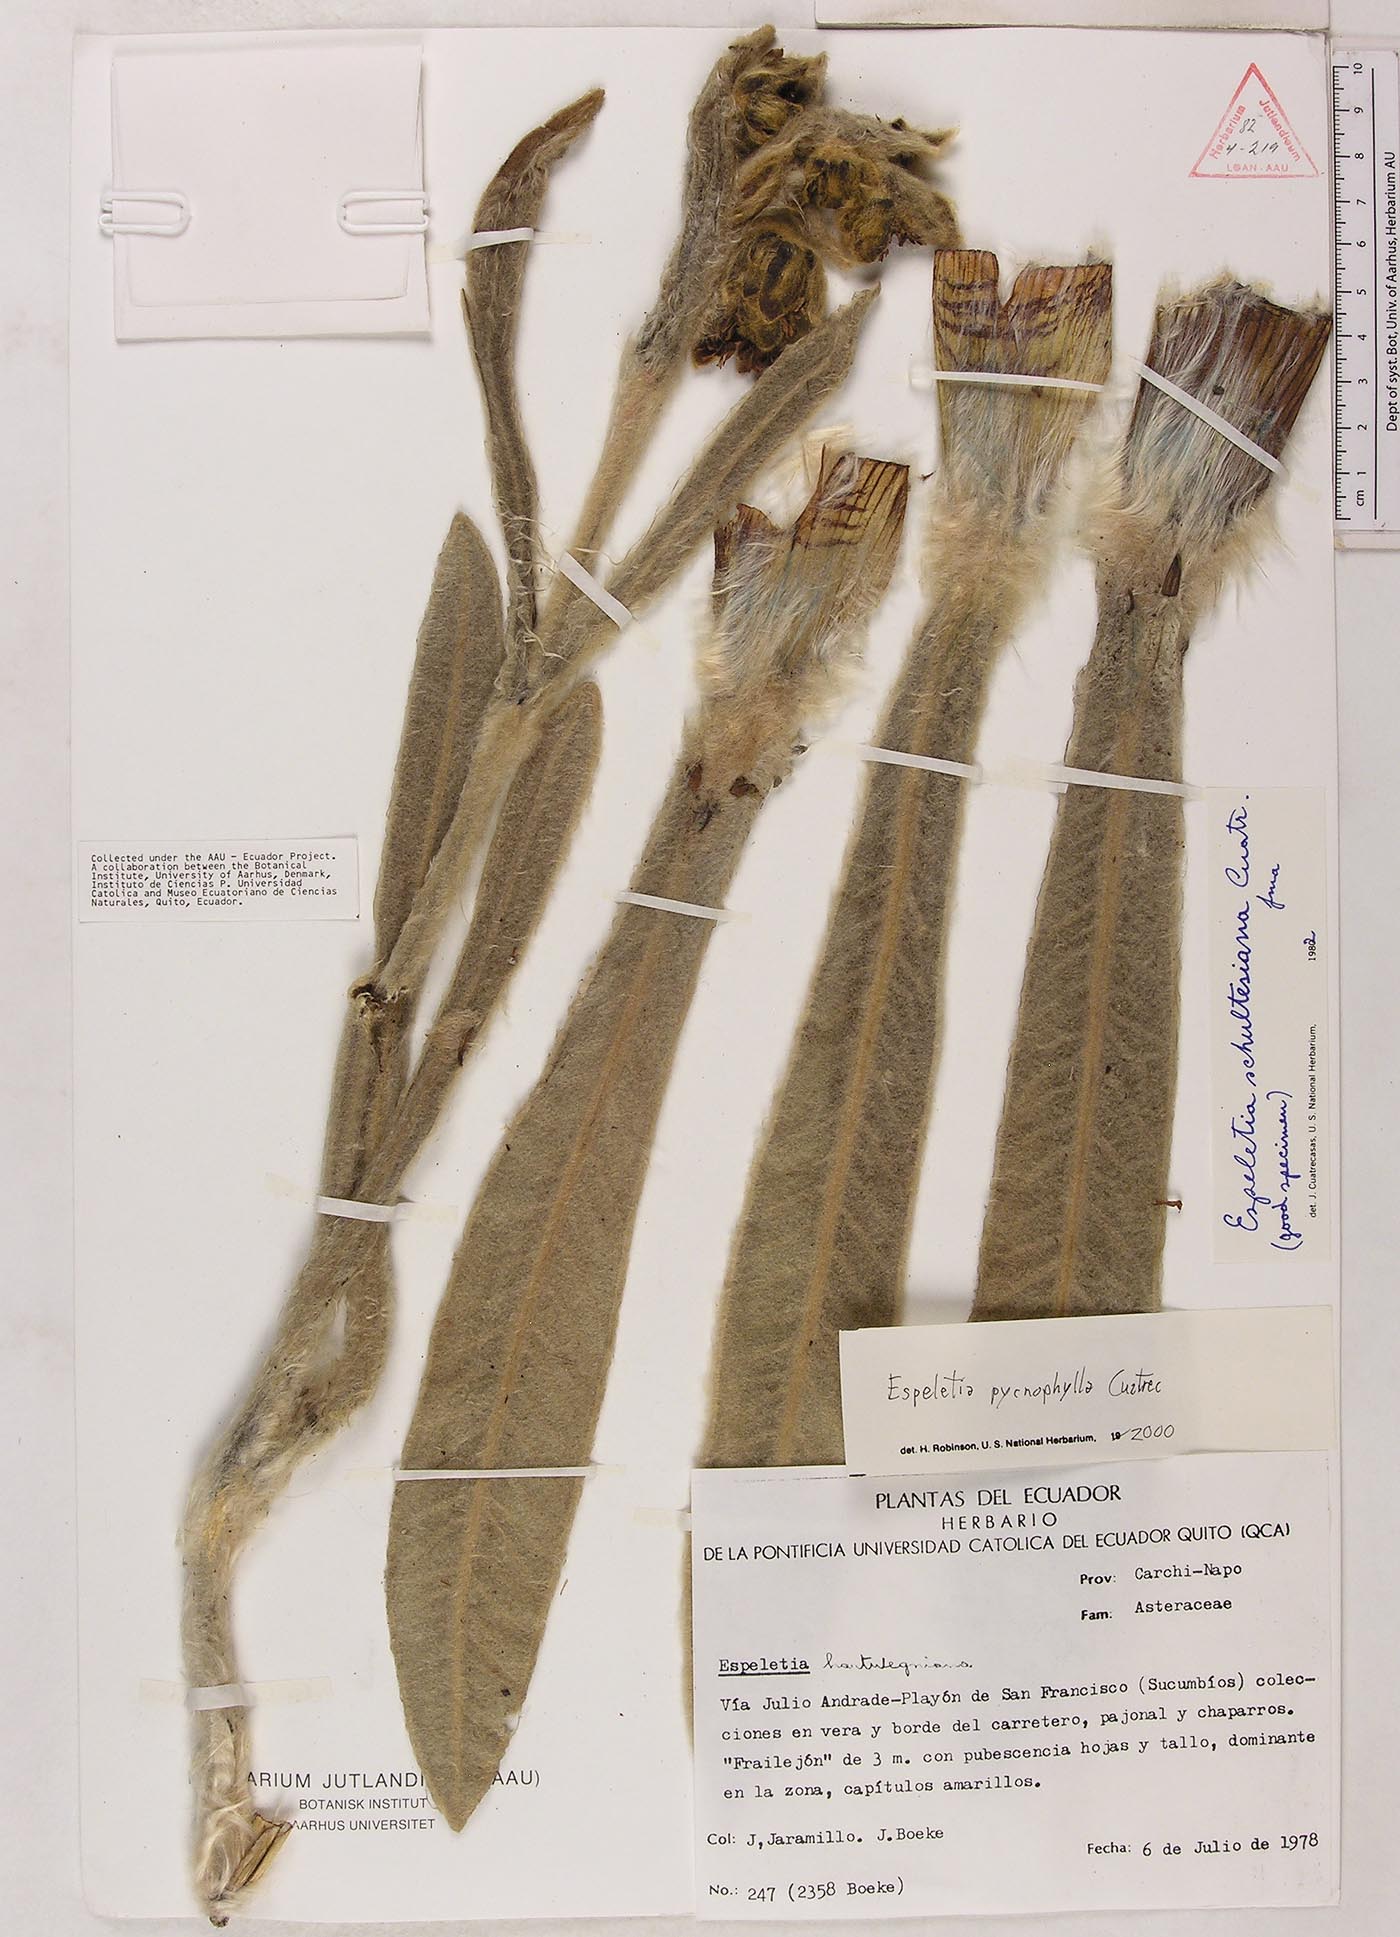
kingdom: Plantae
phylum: Tracheophyta
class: Magnoliopsida
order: Asterales
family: Asteraceae
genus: Espeletia
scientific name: Espeletia pycnophylla
